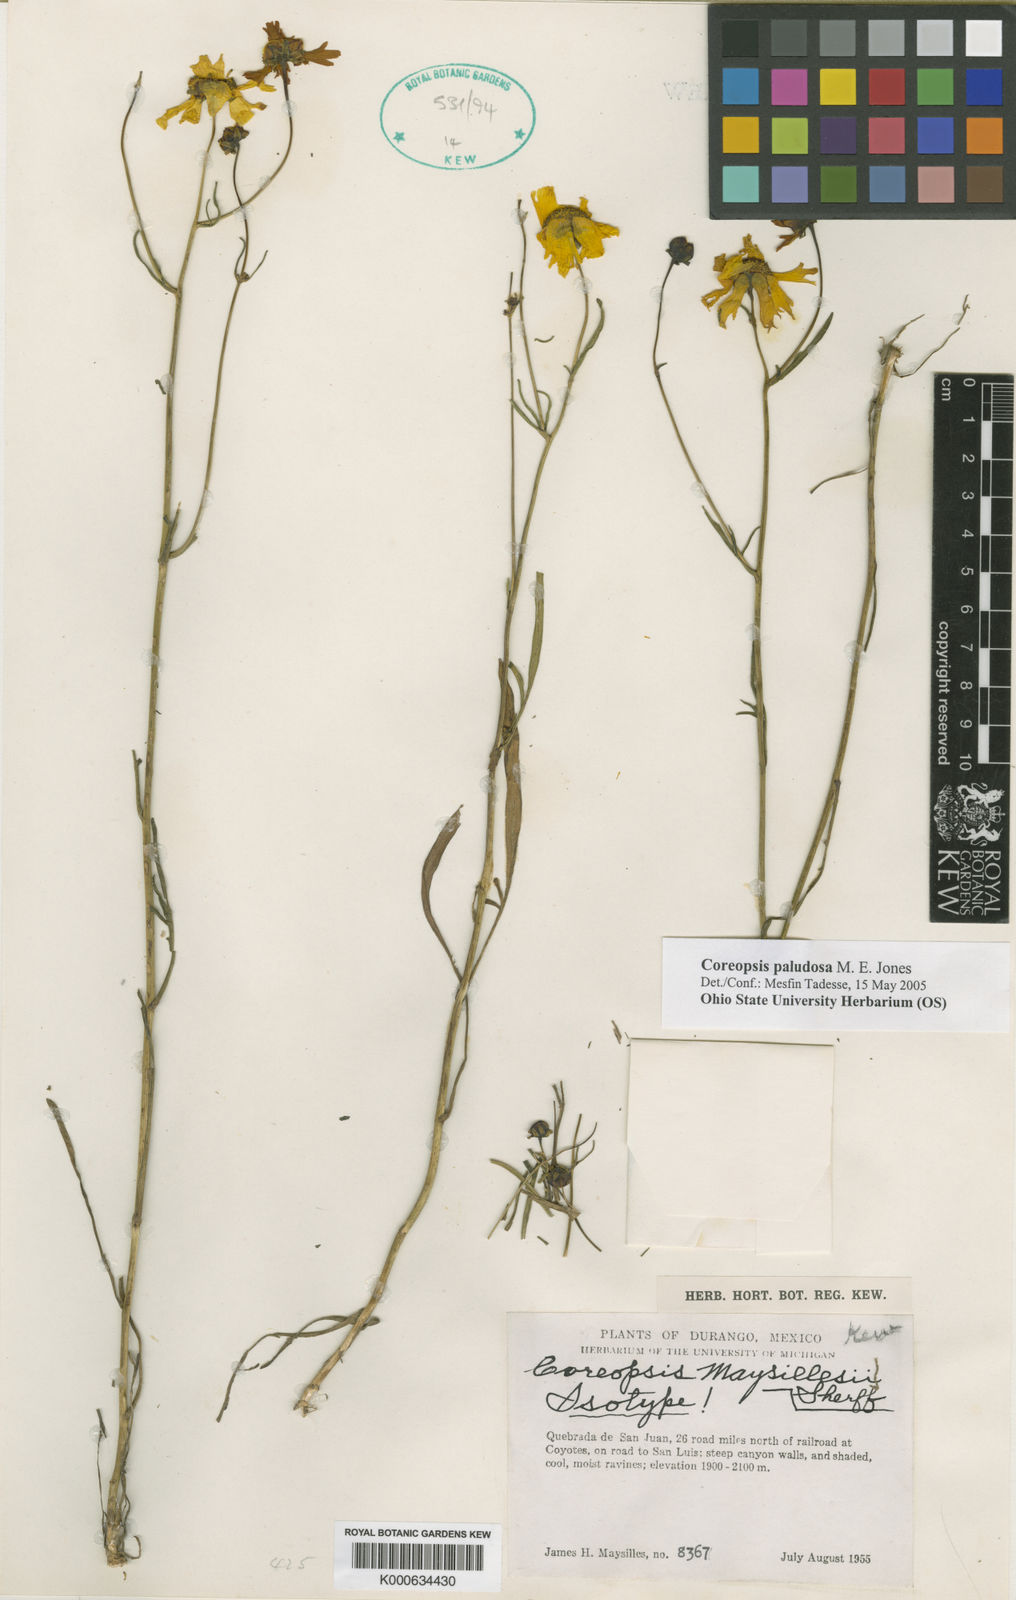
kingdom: Plantae
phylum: Tracheophyta
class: Magnoliopsida
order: Asterales
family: Asteraceae
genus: Coreopsis
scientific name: Coreopsis paludosa
